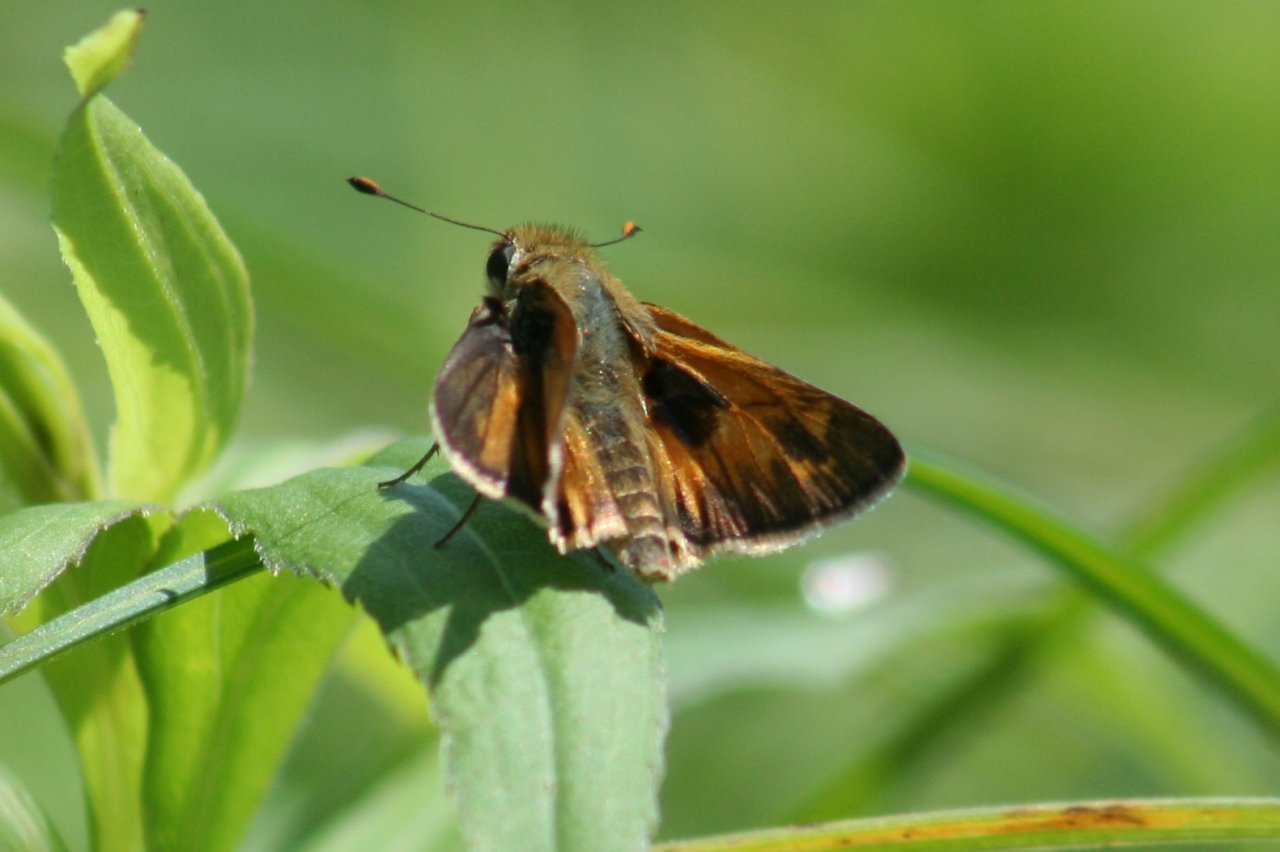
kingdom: Animalia
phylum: Arthropoda
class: Insecta
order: Lepidoptera
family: Hesperiidae
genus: Atalopedes
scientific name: Atalopedes campestris
